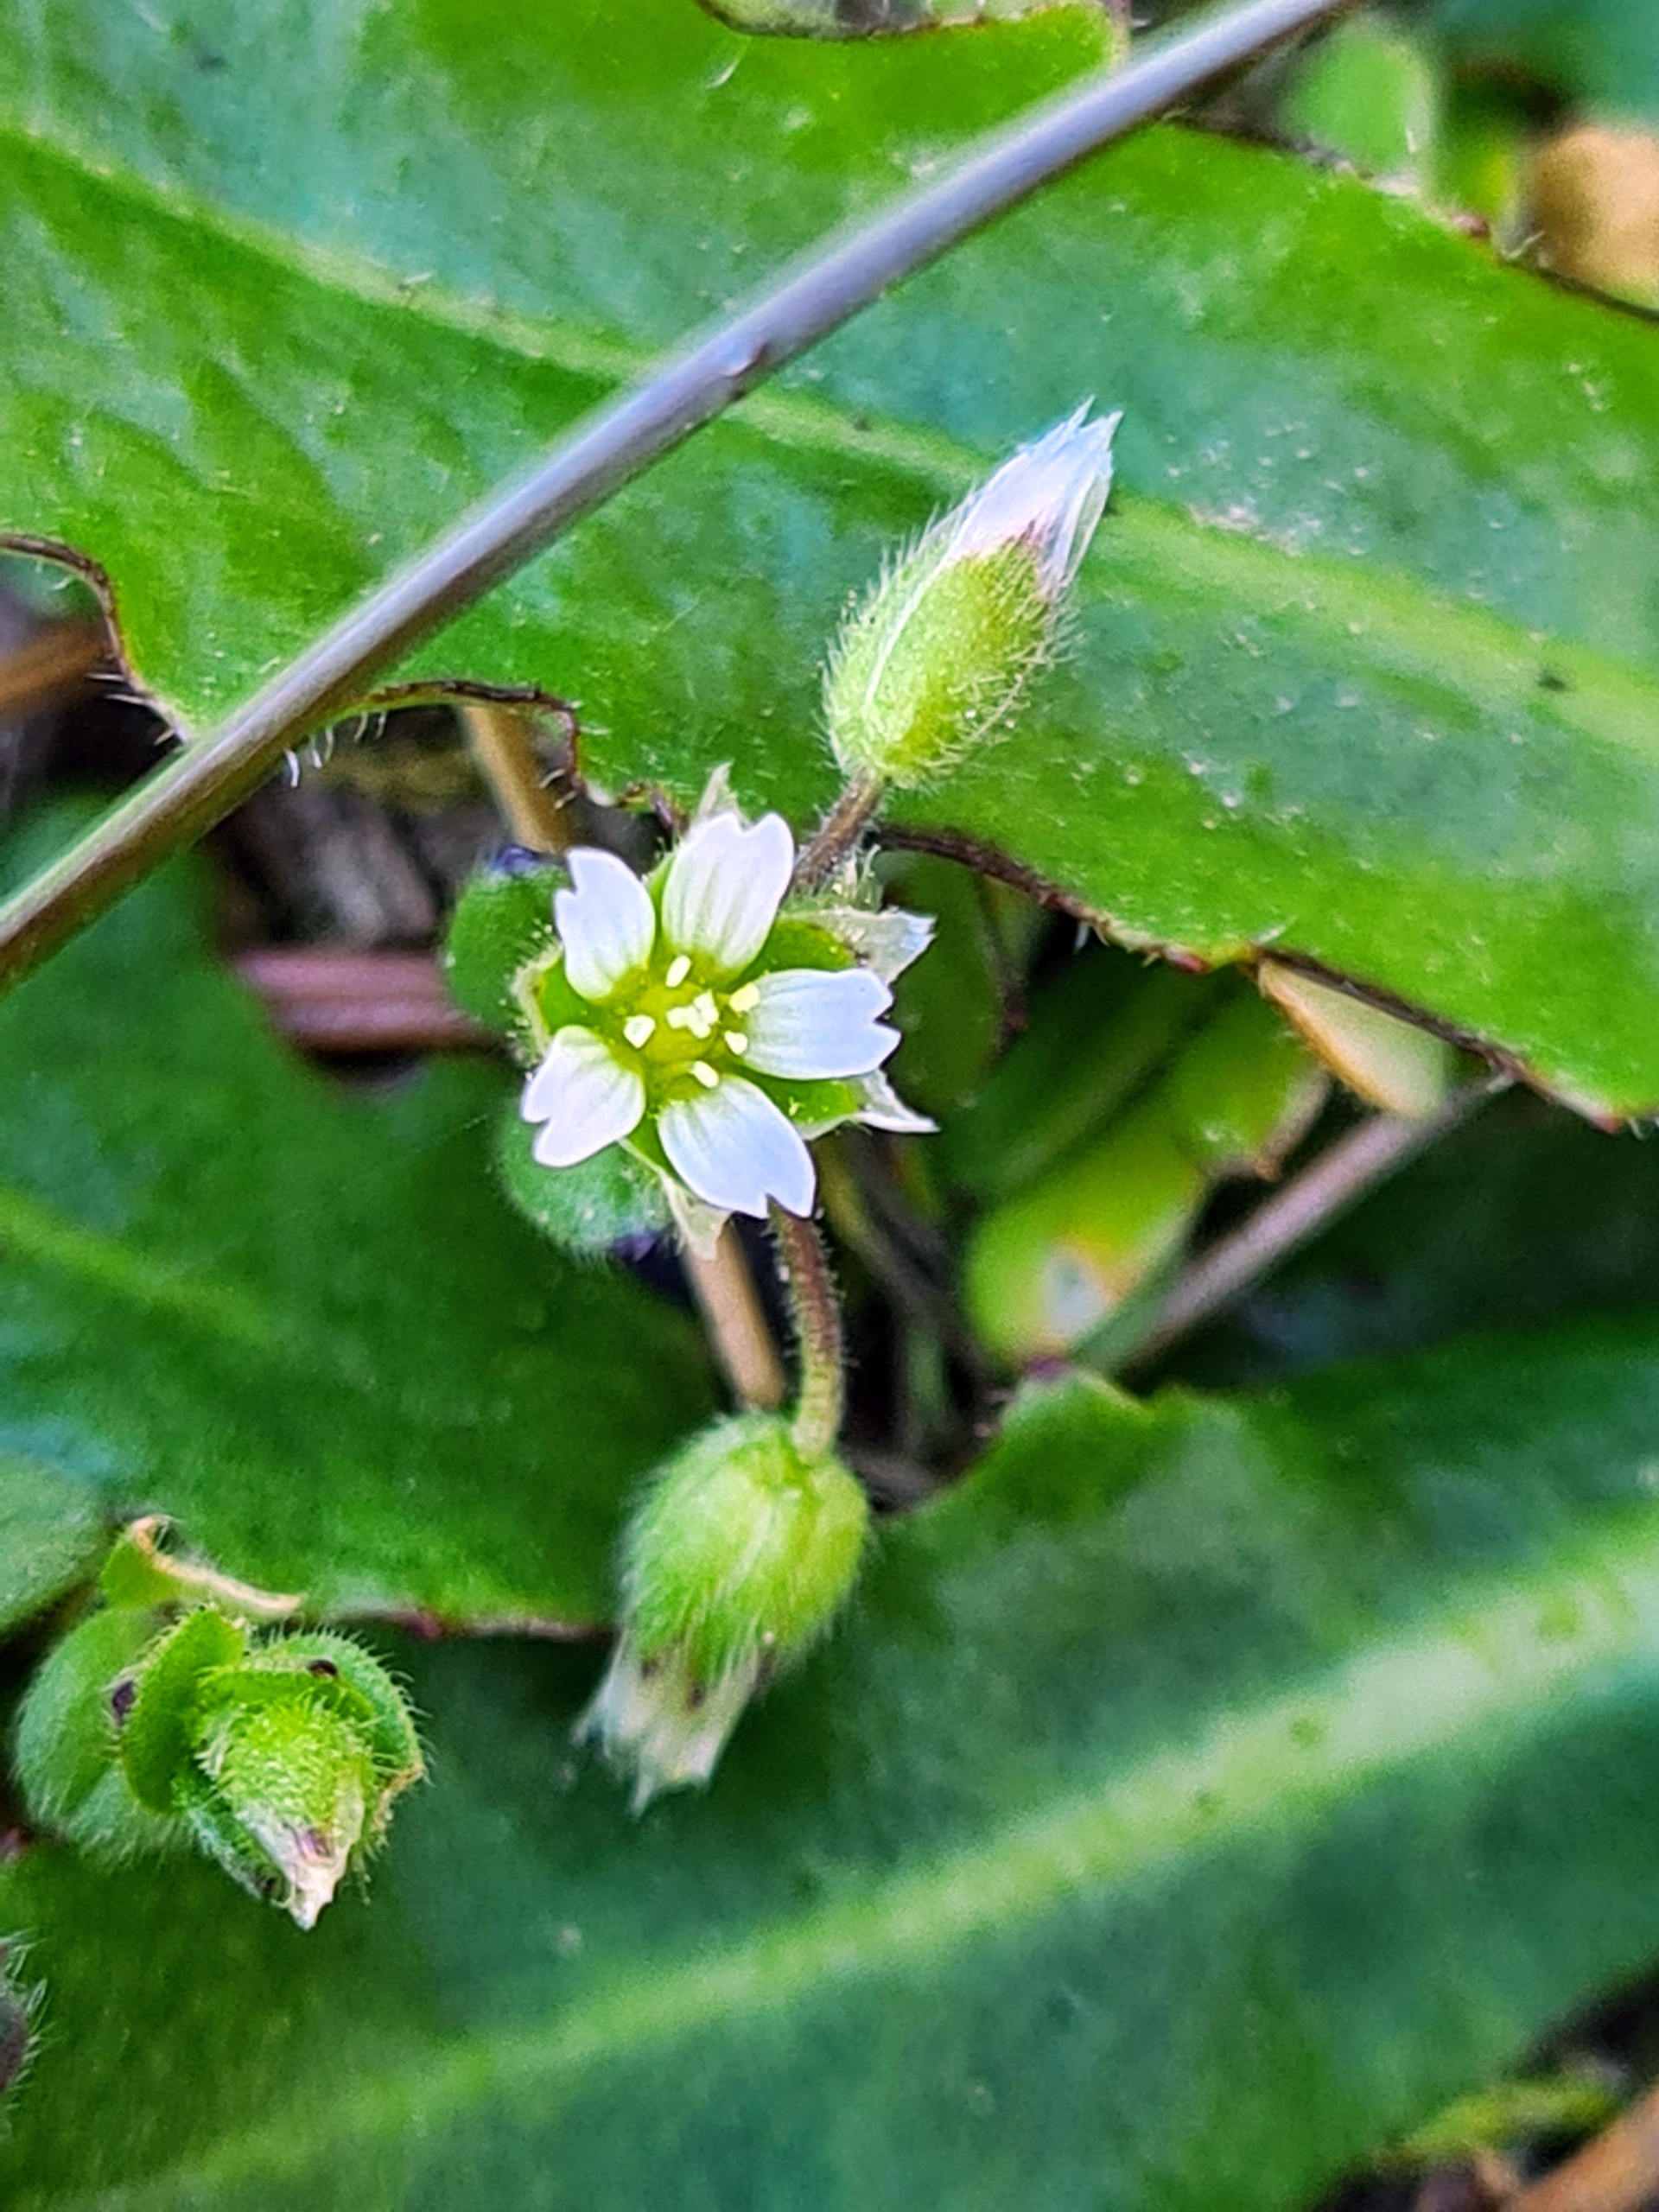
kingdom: Plantae
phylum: Tracheophyta
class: Magnoliopsida
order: Caryophyllales
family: Caryophyllaceae
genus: Cerastium
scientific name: Cerastium semidecandrum
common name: Femhannet hønsetarm
